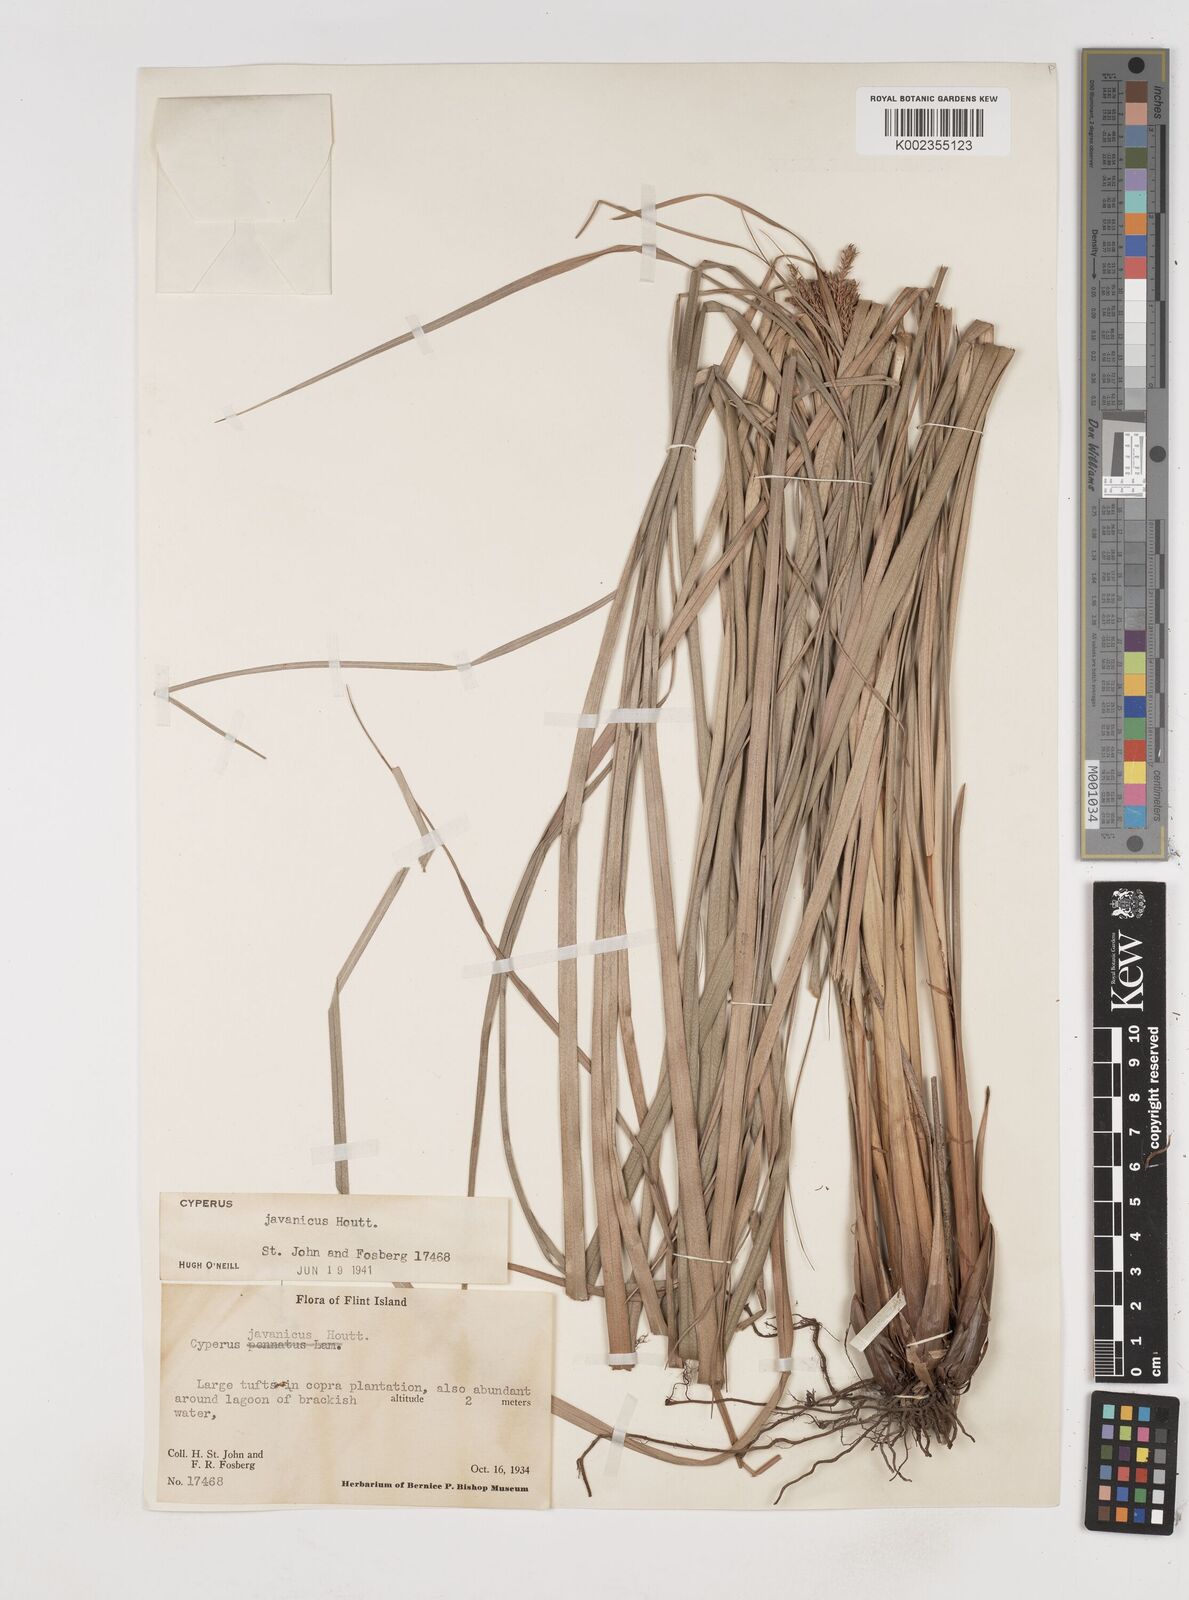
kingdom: Plantae
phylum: Tracheophyta
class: Liliopsida
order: Poales
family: Cyperaceae
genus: Cyperus
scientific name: Cyperus javanicus
